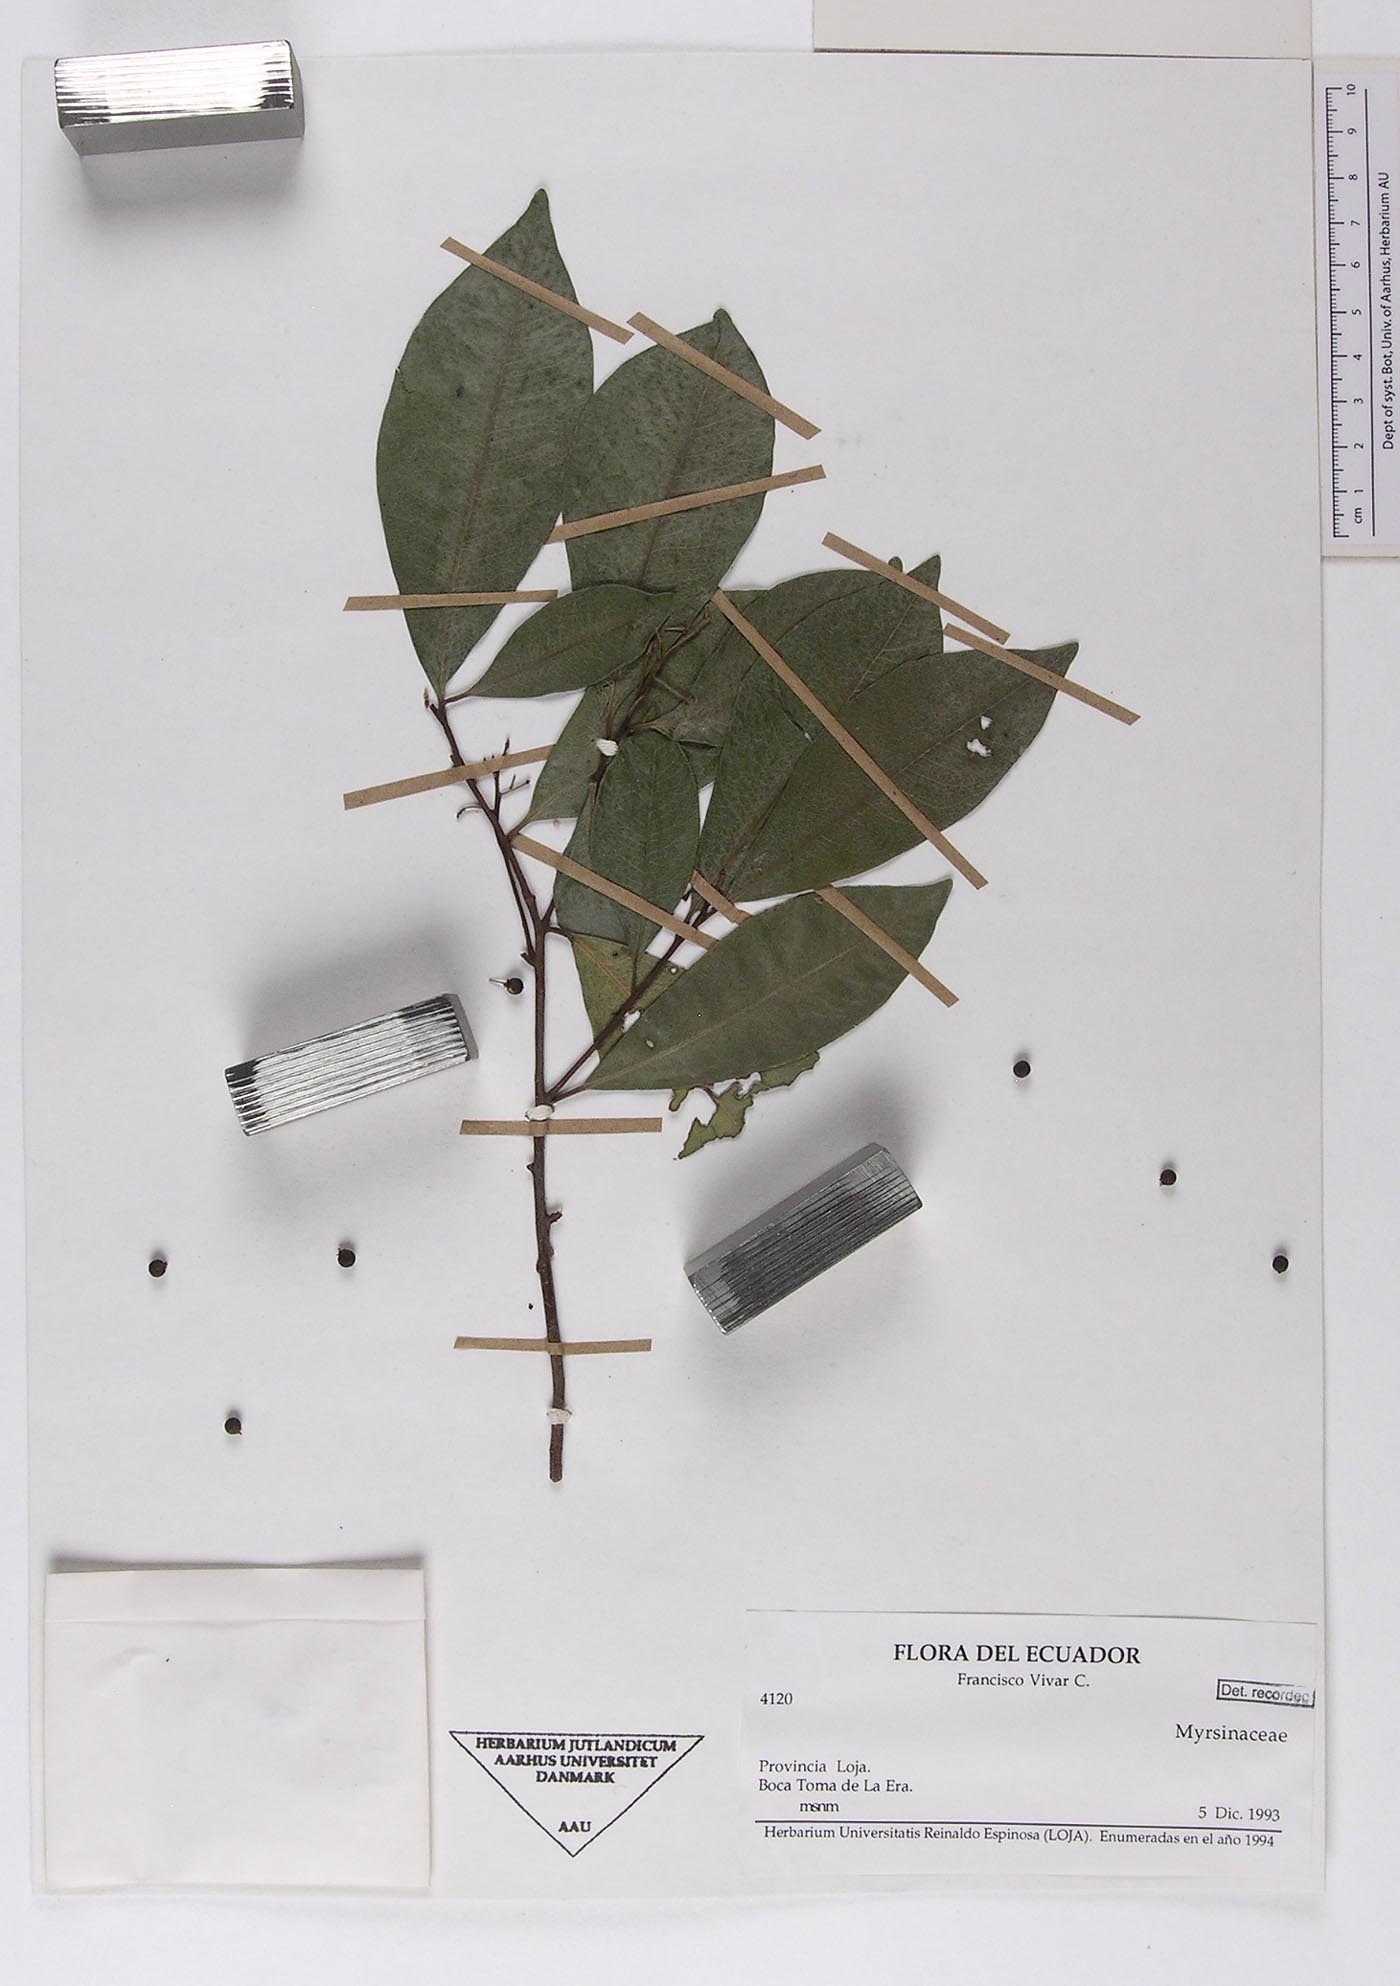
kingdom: Plantae
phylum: Tracheophyta
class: Magnoliopsida
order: Ericales
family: Primulaceae
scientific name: Primulaceae
